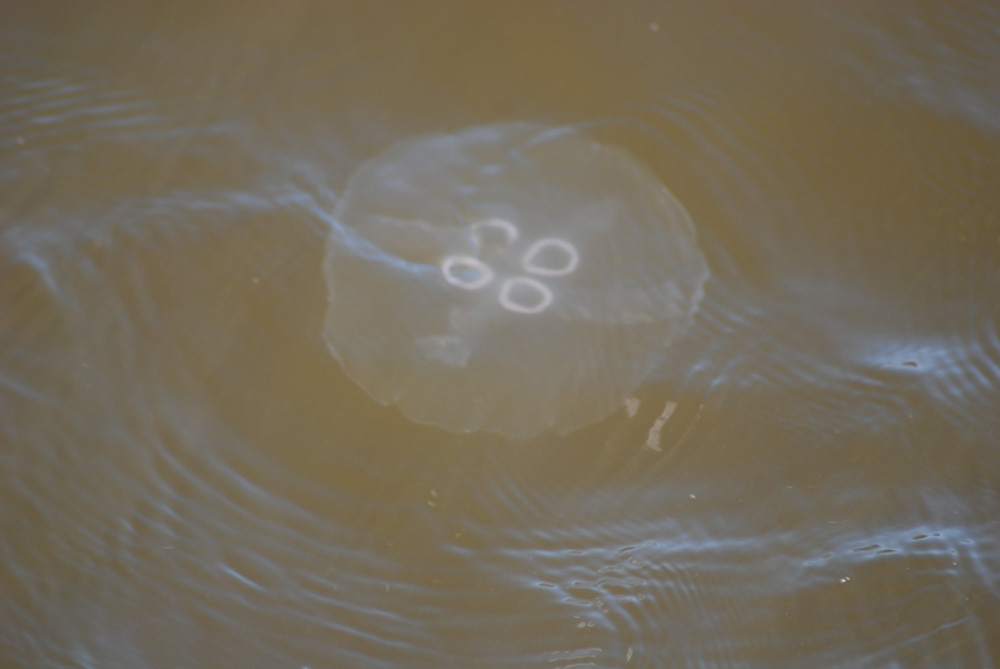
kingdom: Animalia
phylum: Cnidaria
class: Scyphozoa
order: Semaeostomeae
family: Ulmaridae
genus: Aurelia
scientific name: Aurelia aurita
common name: Moon jellyfish
